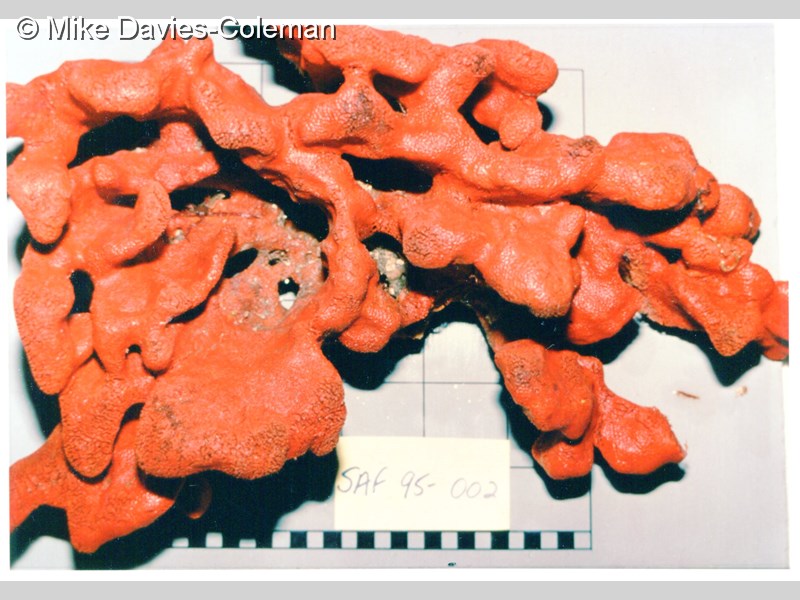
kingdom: Animalia
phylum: Porifera
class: Demospongiae
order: Poecilosclerida
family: Crellidae
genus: Crella
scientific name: Crella
